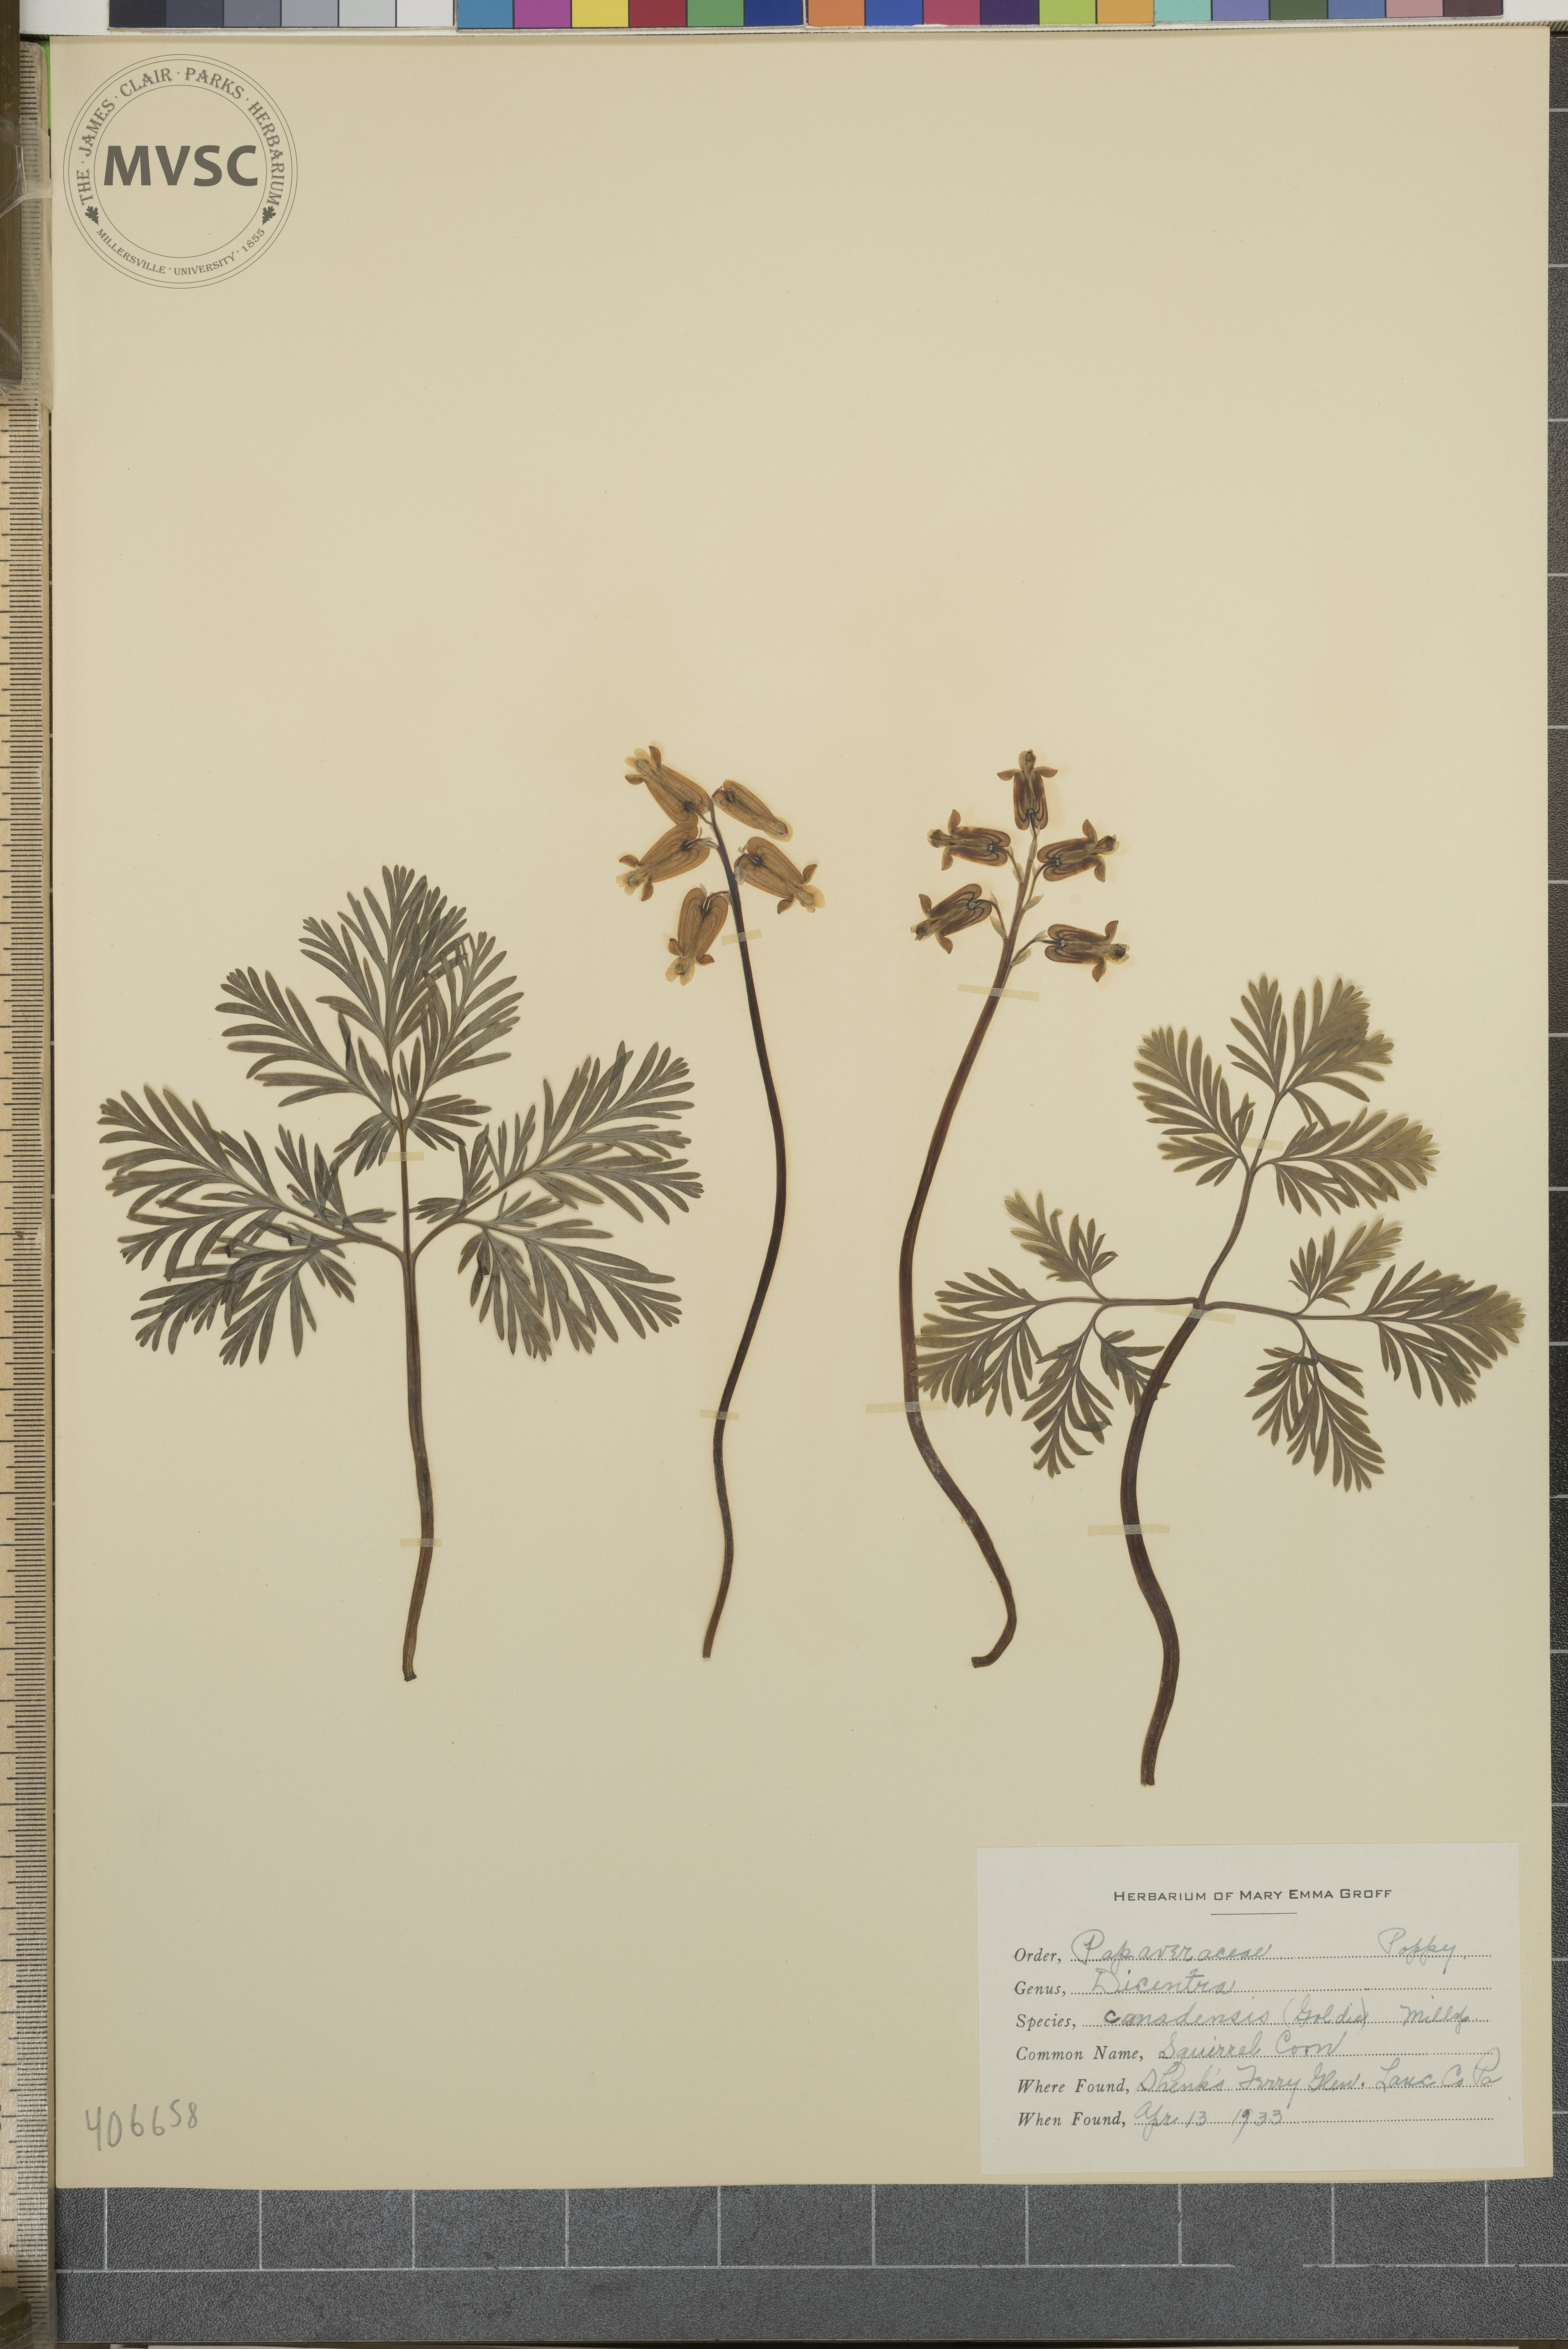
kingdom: Plantae
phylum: Tracheophyta
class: Magnoliopsida
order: Ranunculales
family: Papaveraceae
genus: Dicentra
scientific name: Dicentra canadensis
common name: Squirrel Corn
